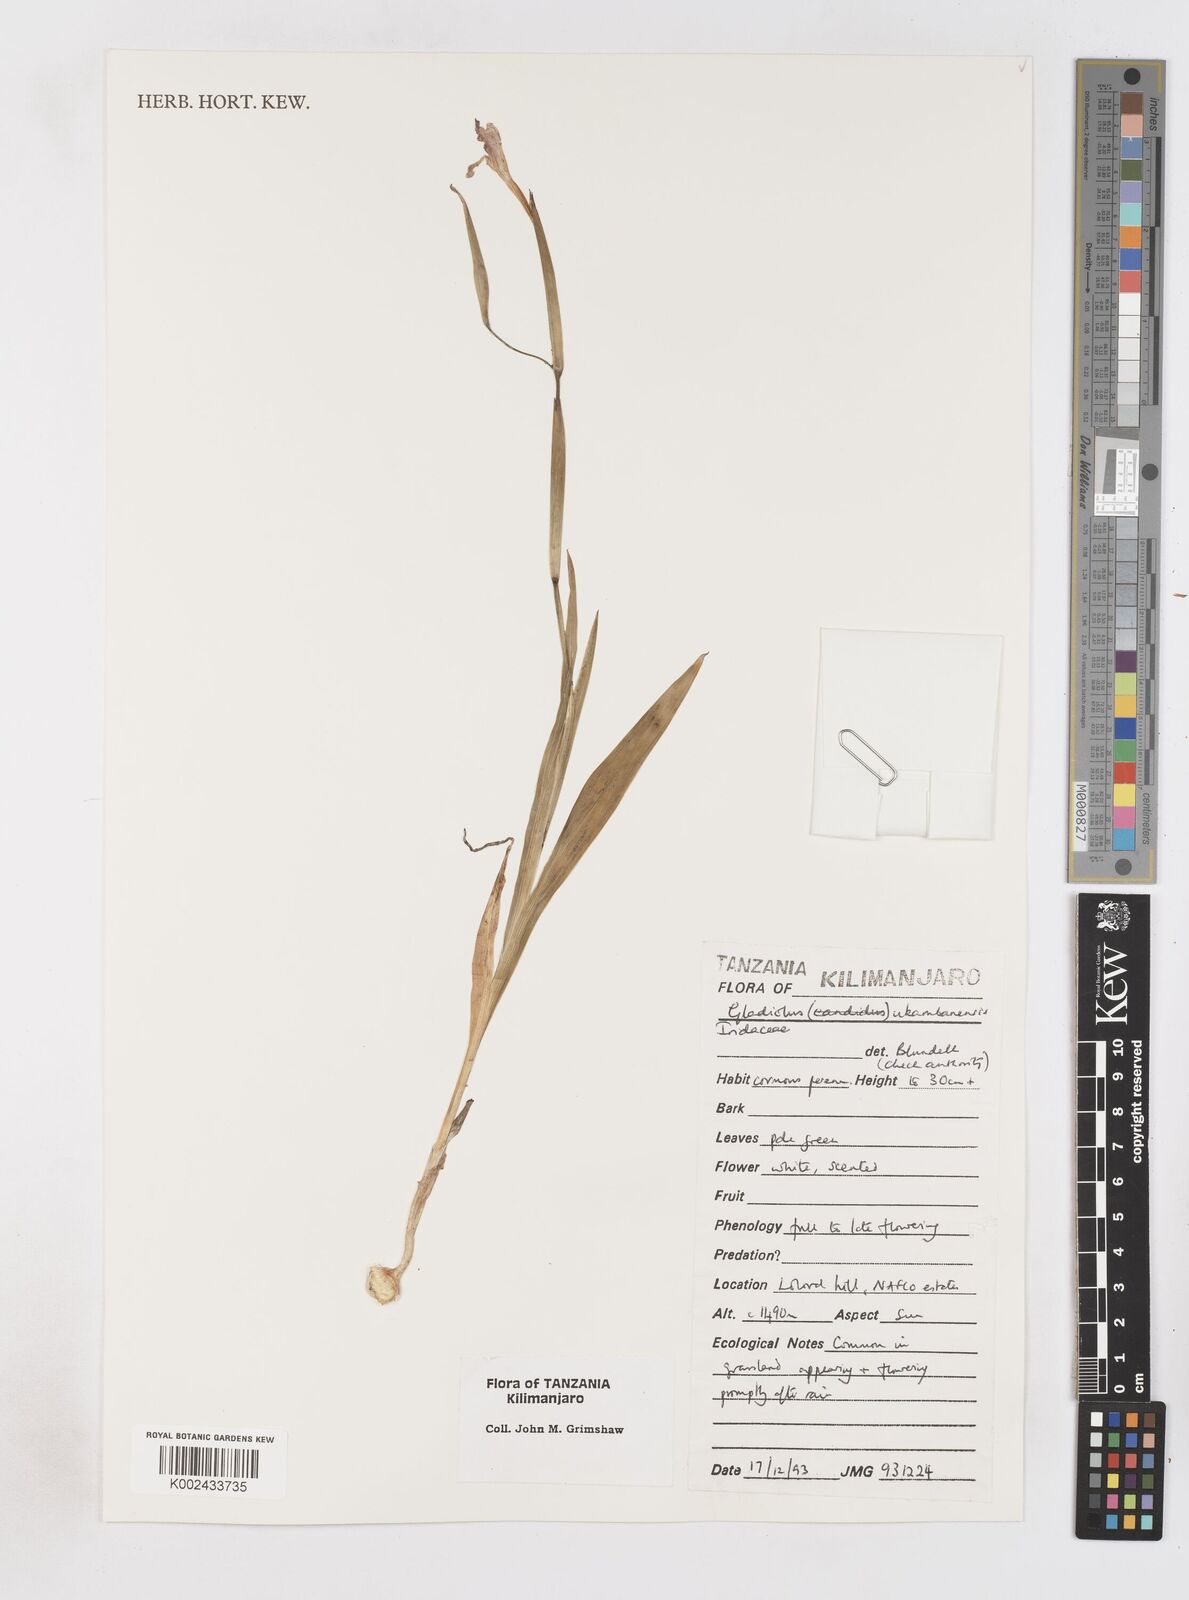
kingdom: Plantae
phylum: Tracheophyta
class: Liliopsida
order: Asparagales
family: Iridaceae
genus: Gladiolus
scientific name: Gladiolus candidus
